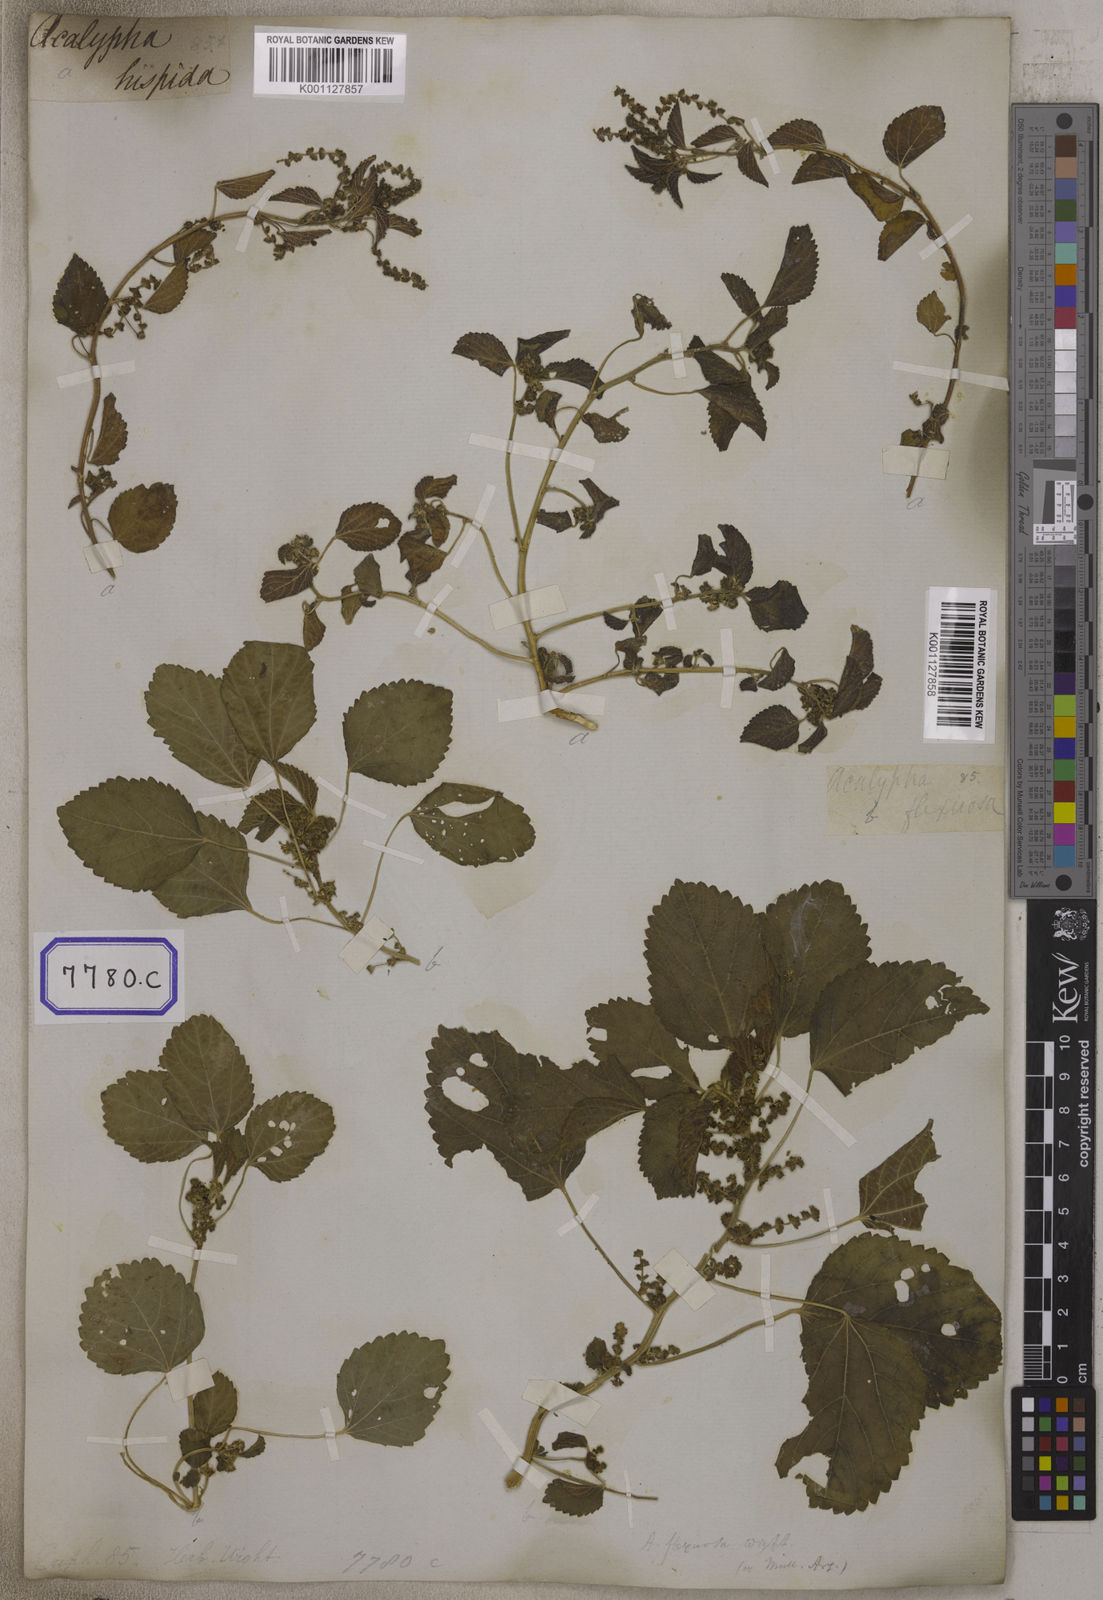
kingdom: Plantae
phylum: Tracheophyta
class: Magnoliopsida
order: Malpighiales
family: Euphorbiaceae
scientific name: Euphorbiaceae
